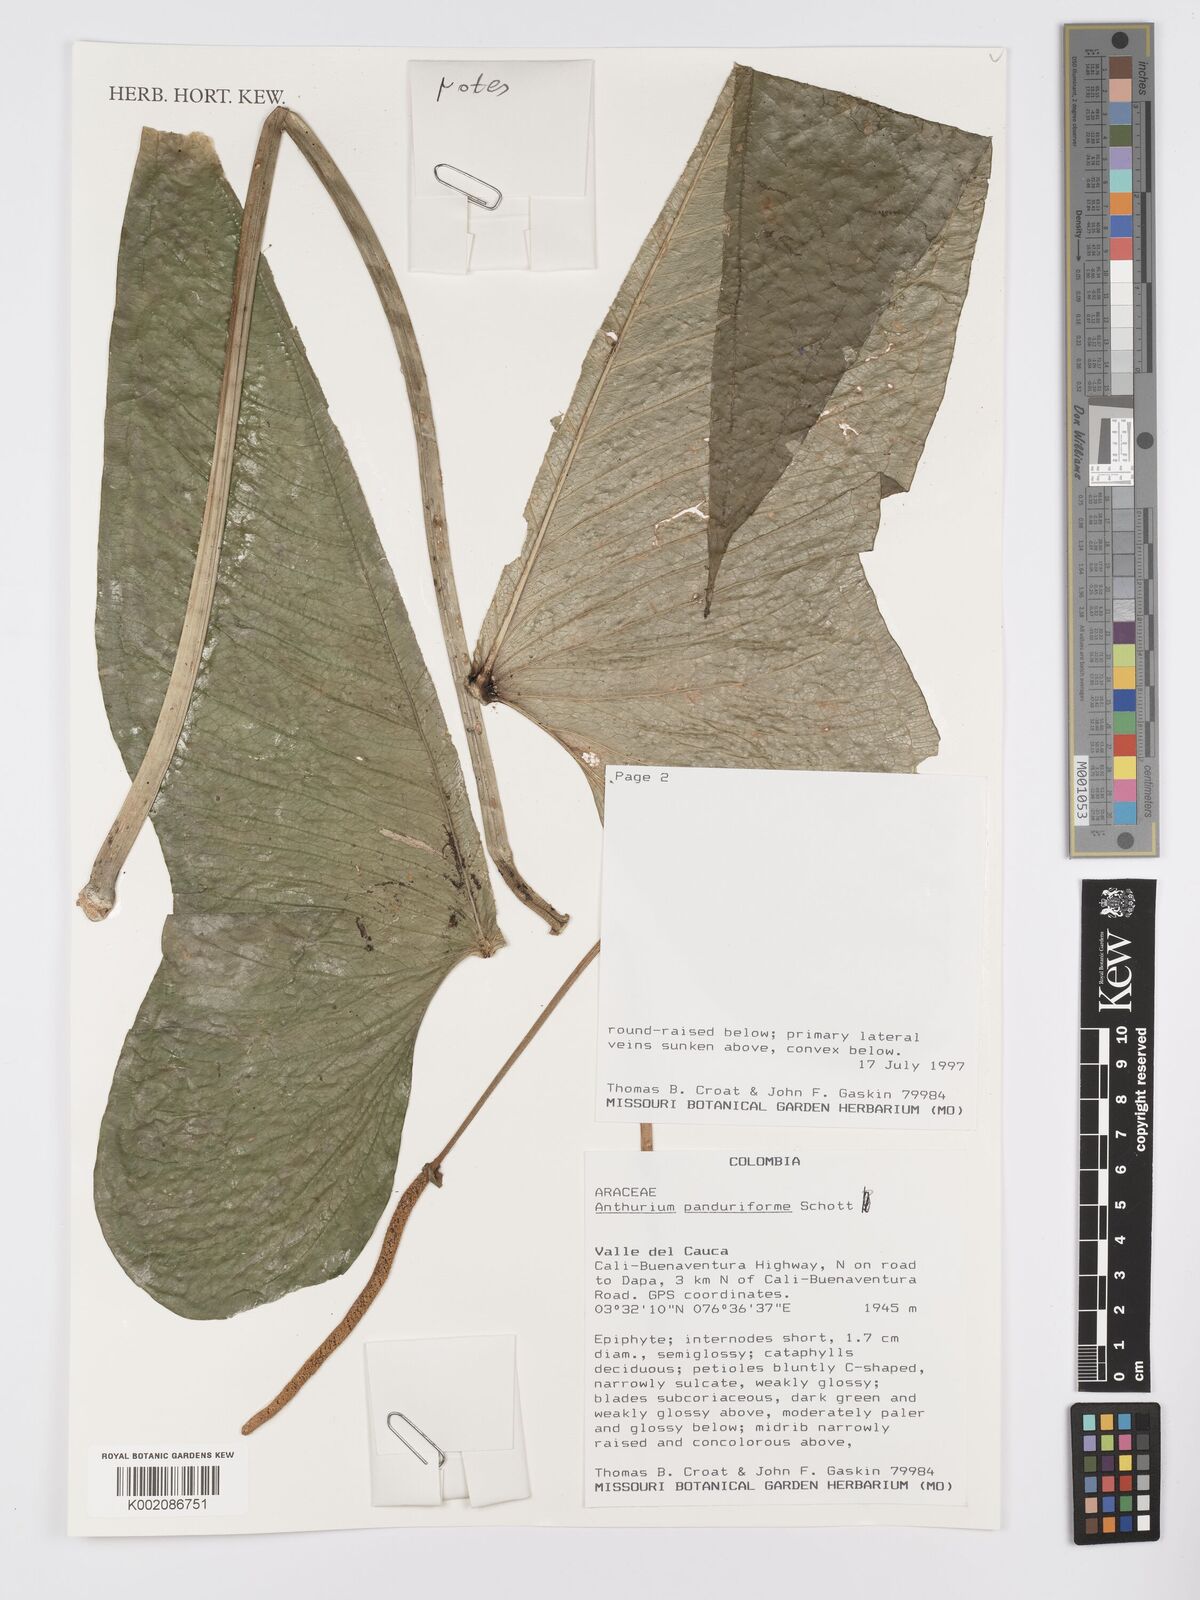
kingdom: Plantae
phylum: Tracheophyta
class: Liliopsida
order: Alismatales
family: Araceae
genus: Anthurium
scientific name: Anthurium panduriforme
